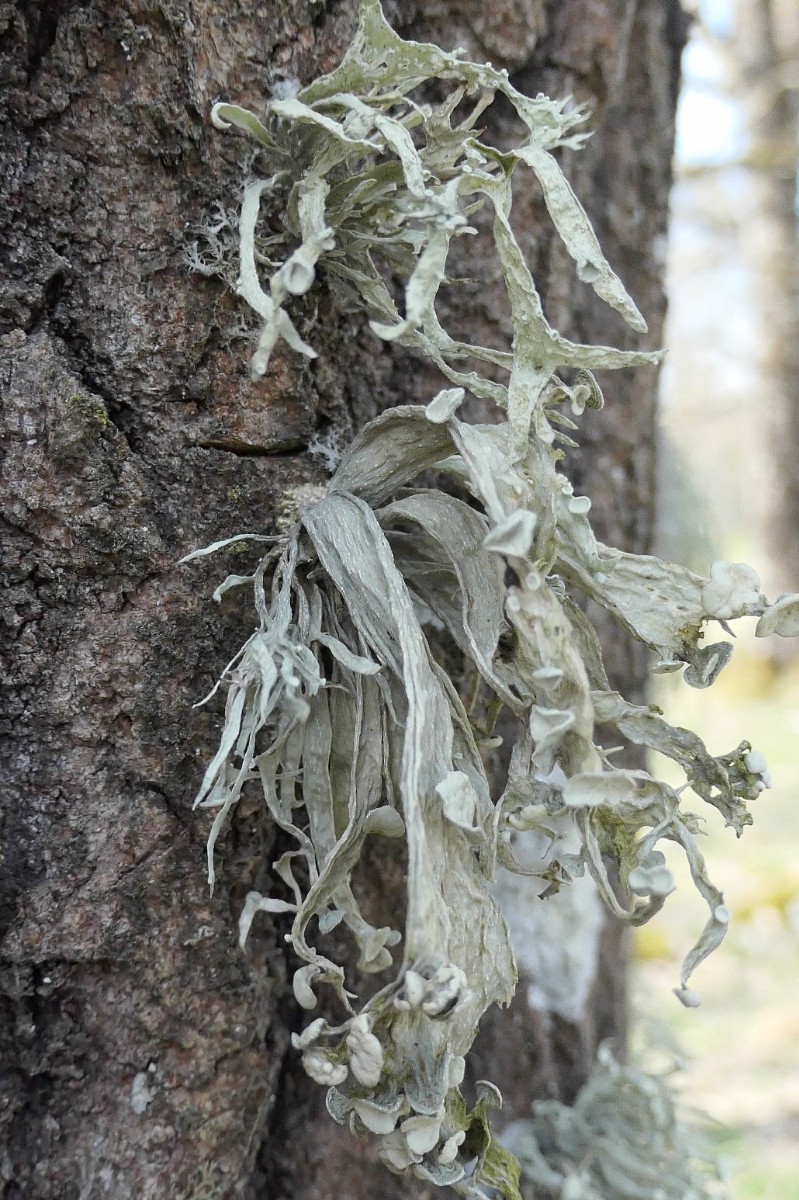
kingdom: Fungi
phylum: Ascomycota
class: Lecanoromycetes
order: Lecanorales
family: Ramalinaceae
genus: Ramalina
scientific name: Ramalina fraxinea
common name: stor grenlav
